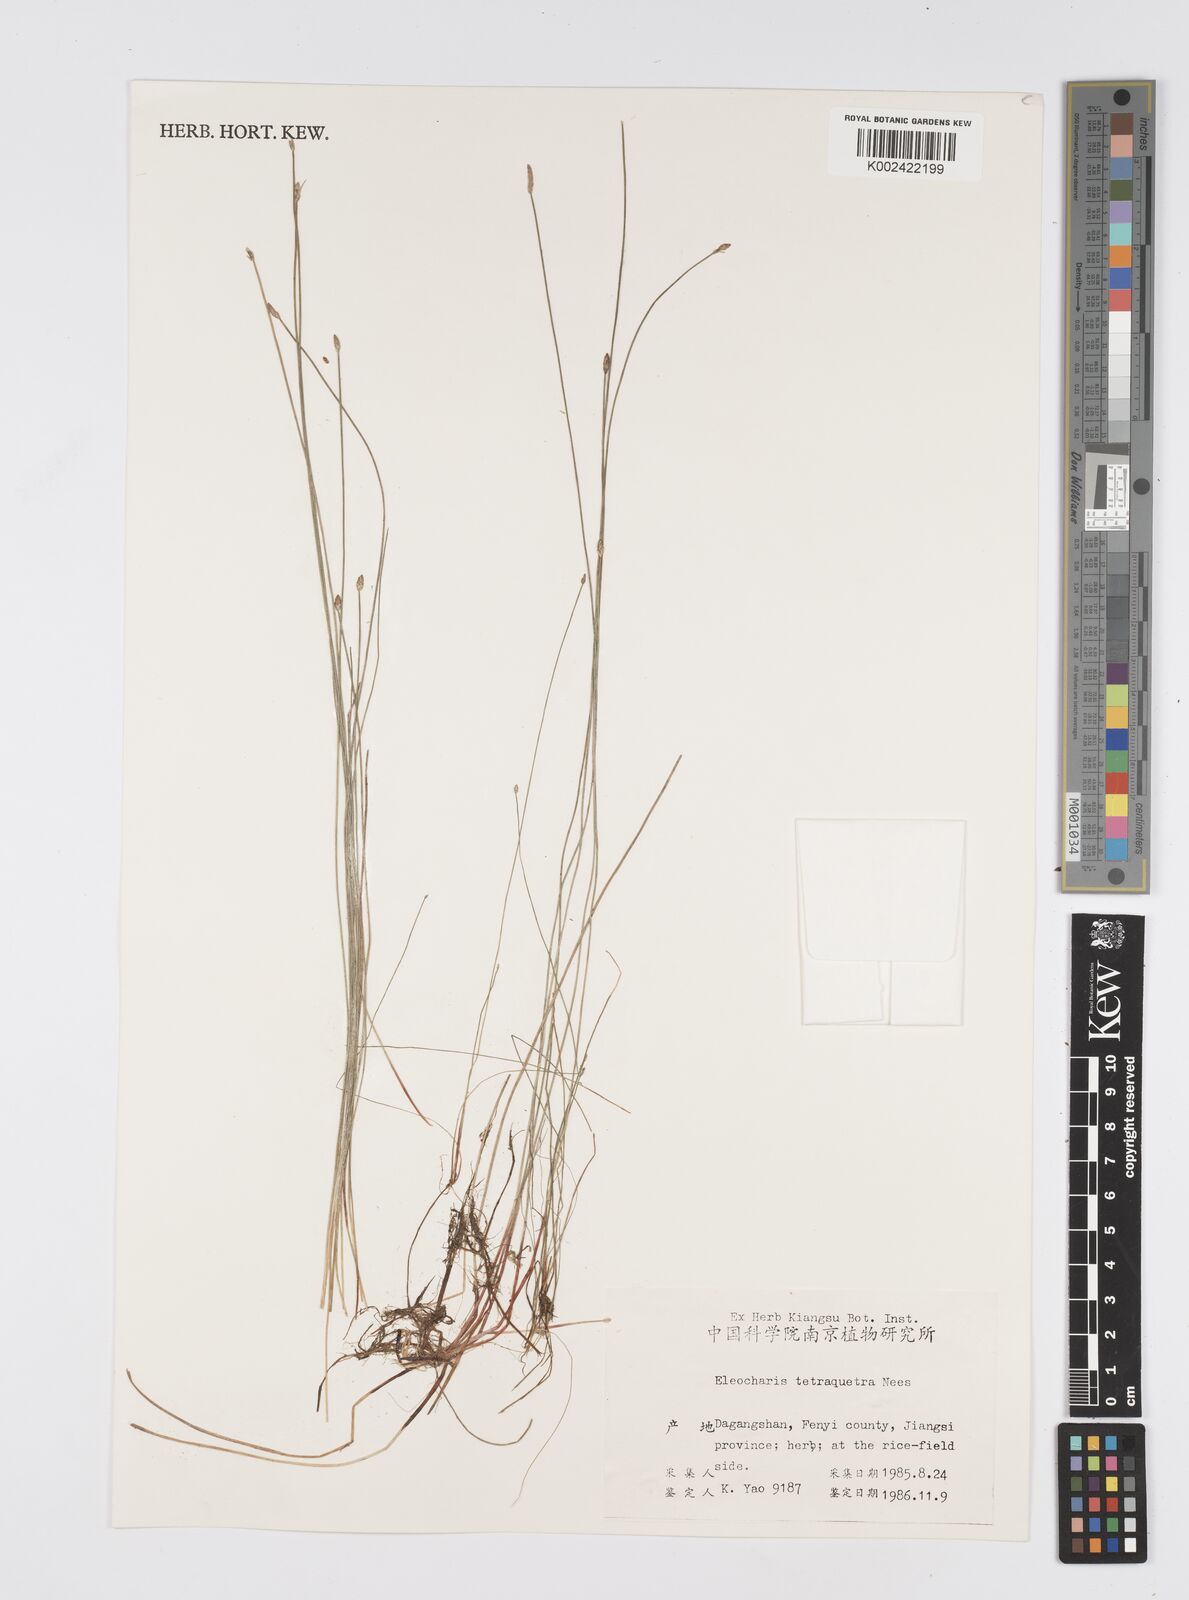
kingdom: Plantae
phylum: Tracheophyta
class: Liliopsida
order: Poales
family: Cyperaceae
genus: Eleocharis
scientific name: Eleocharis tetraquetra
